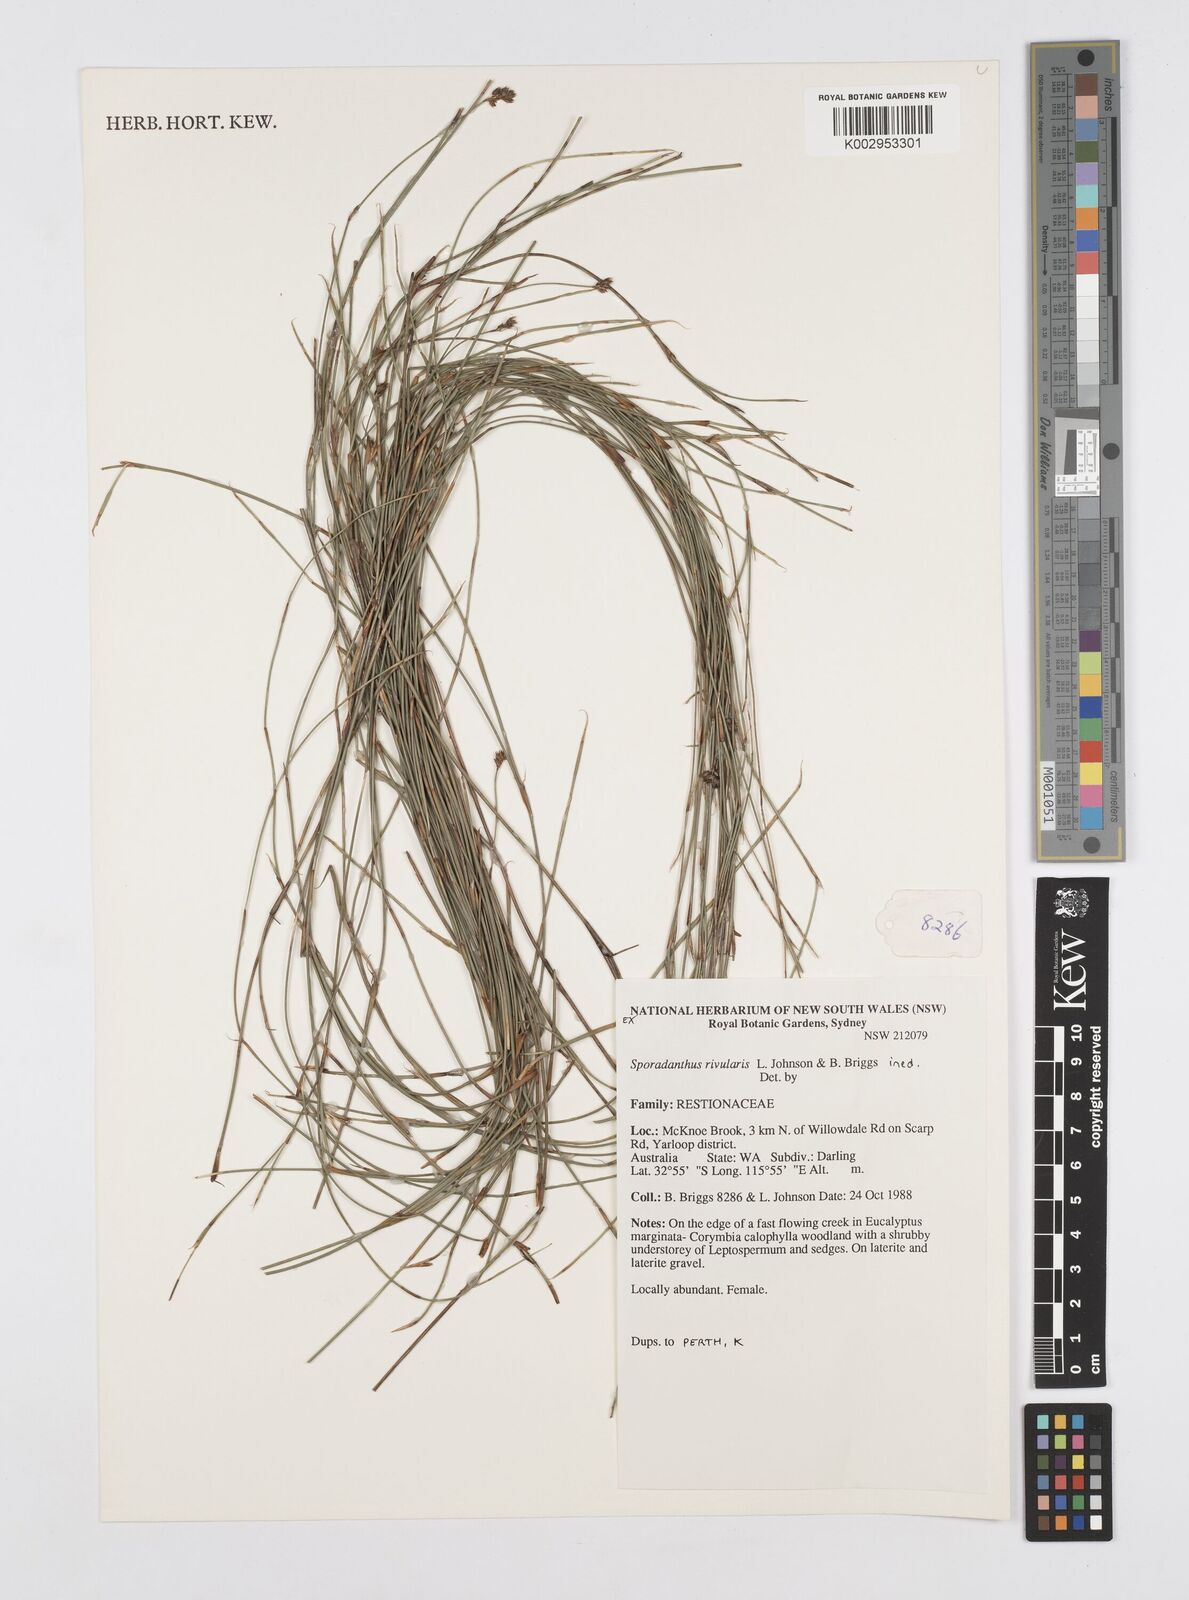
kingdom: Plantae
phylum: Tracheophyta
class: Liliopsida
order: Poales
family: Restionaceae
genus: Sporadanthus
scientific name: Sporadanthus rivularis
